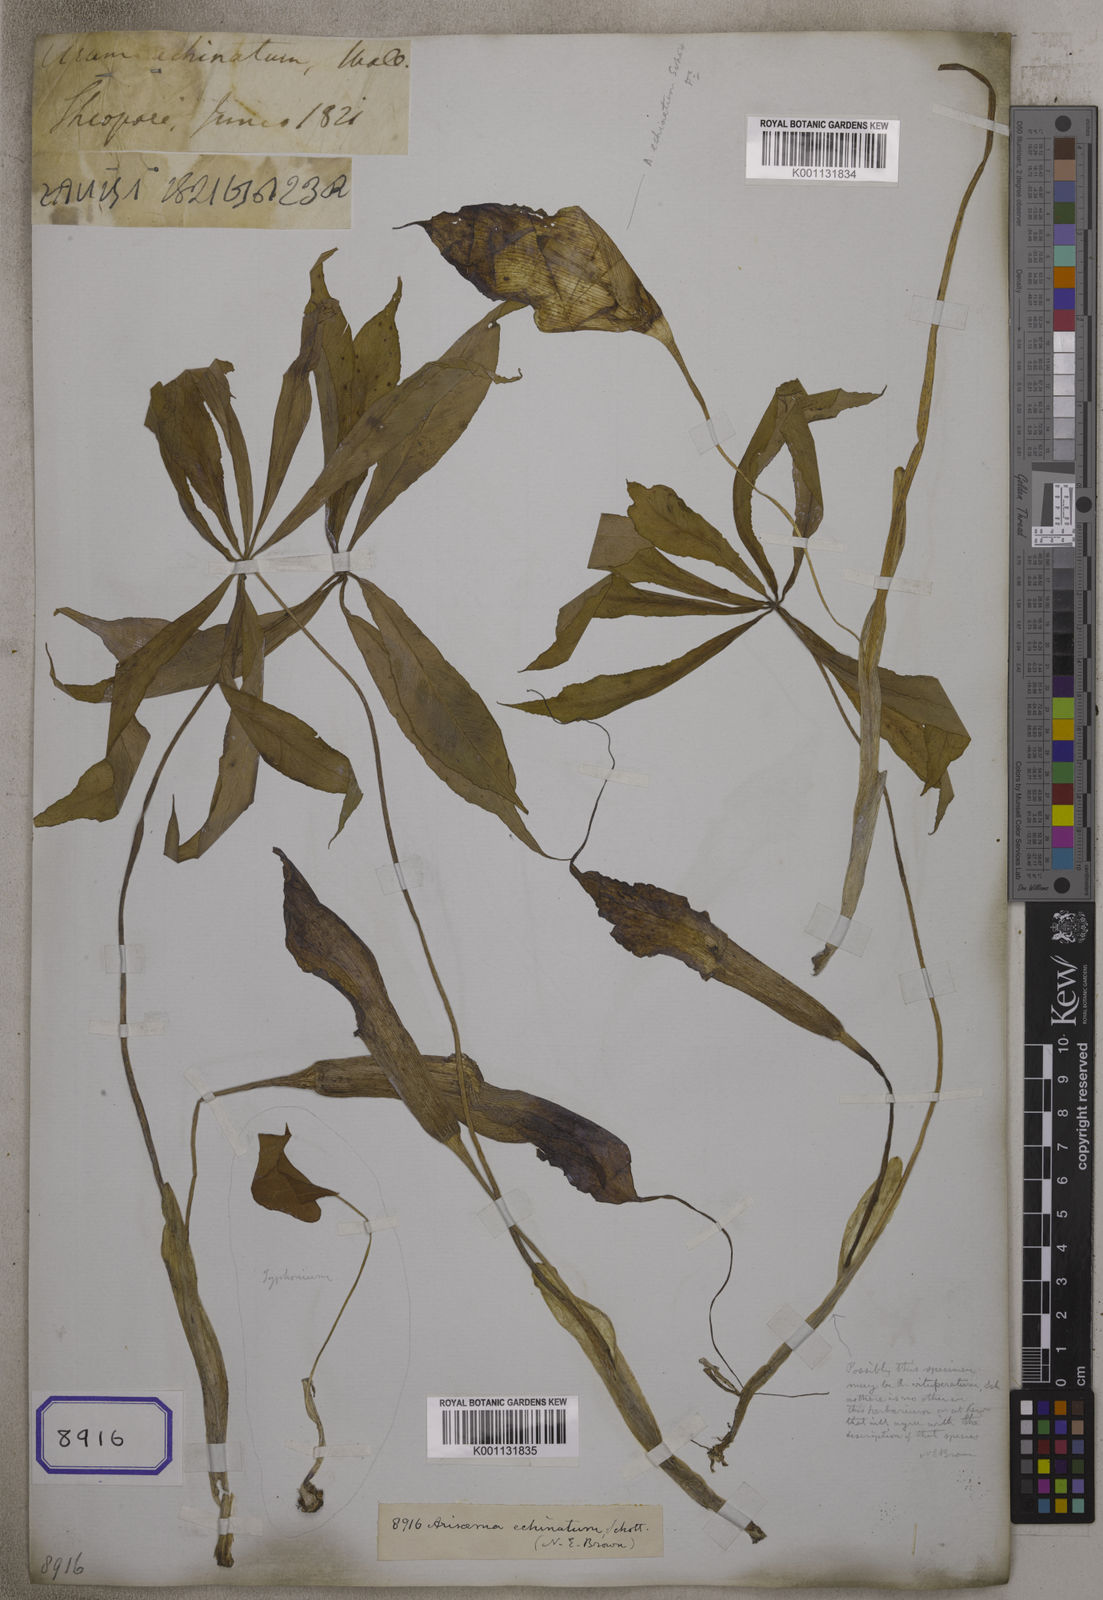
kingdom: Plantae
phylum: Tracheophyta
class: Liliopsida
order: Alismatales
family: Araceae
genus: Arisaema
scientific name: Arisaema echinatum
